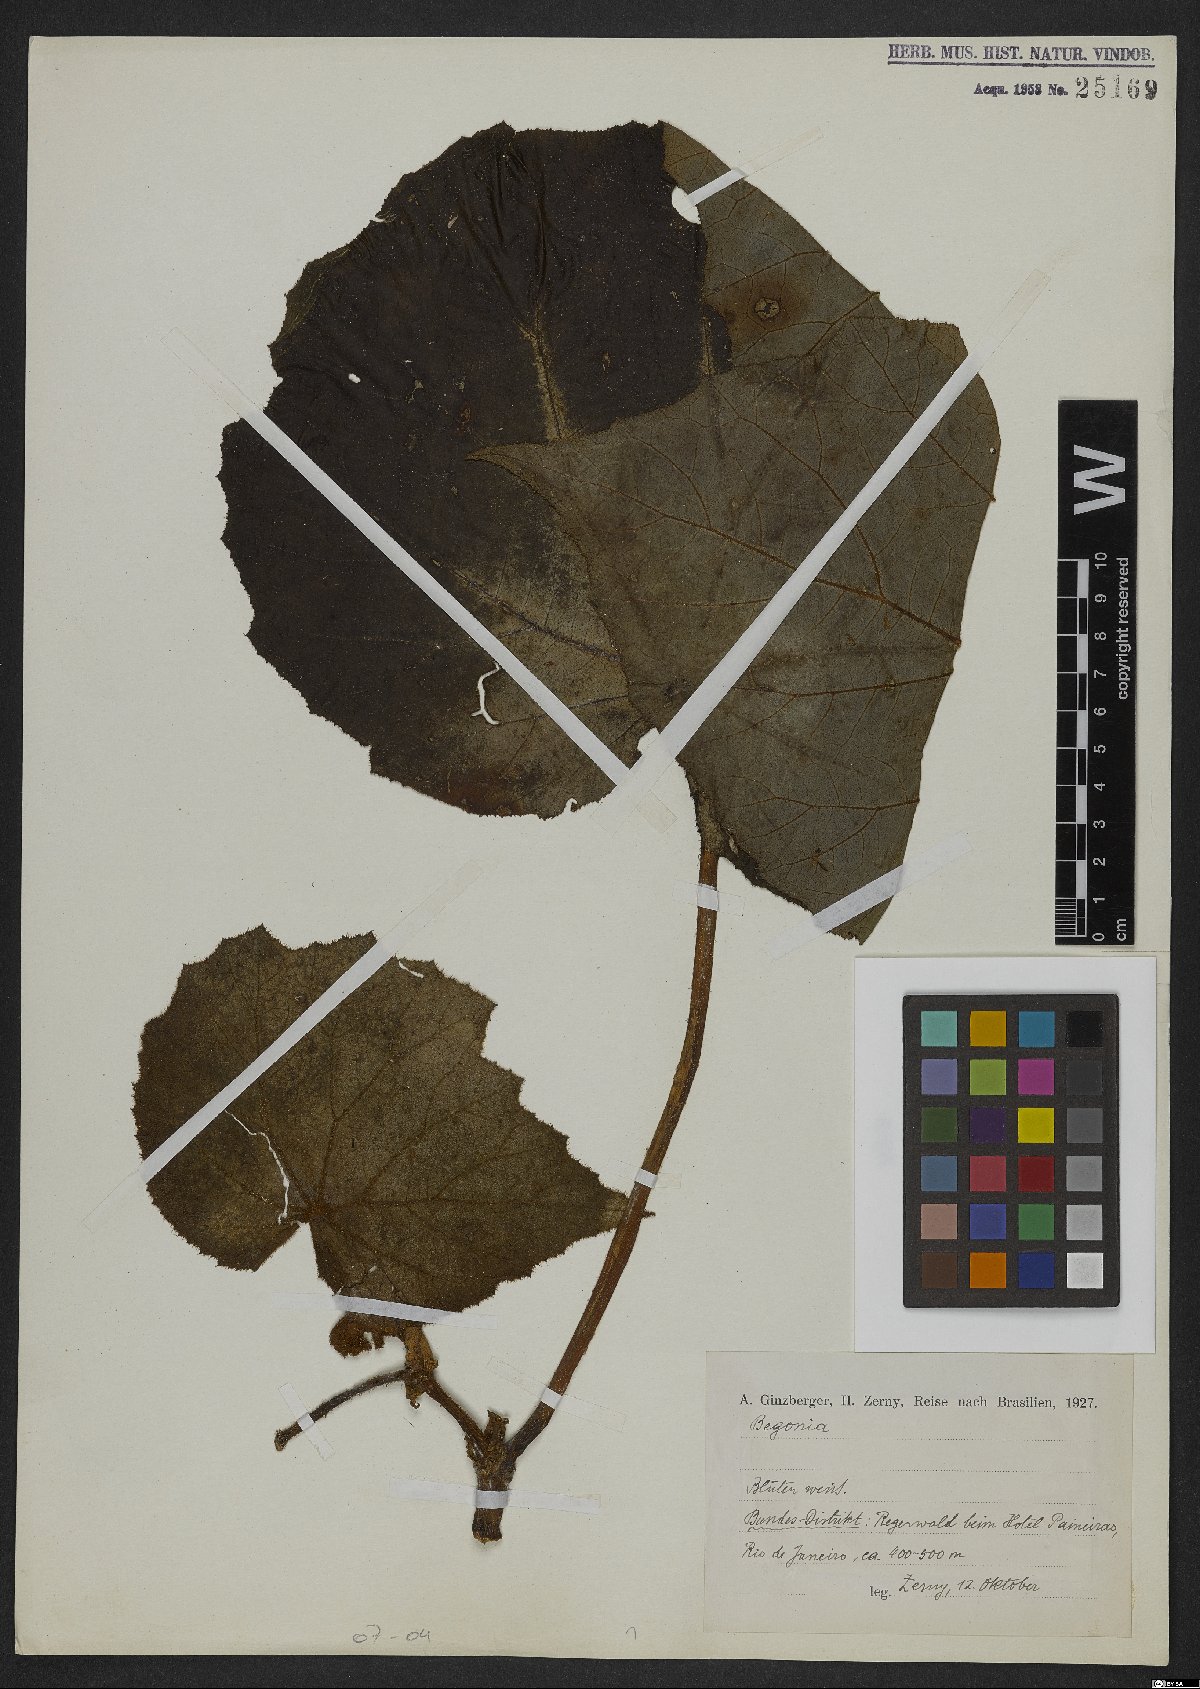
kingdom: Plantae
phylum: Tracheophyta
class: Magnoliopsida
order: Cucurbitales
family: Begoniaceae
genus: Begonia
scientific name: Begonia
